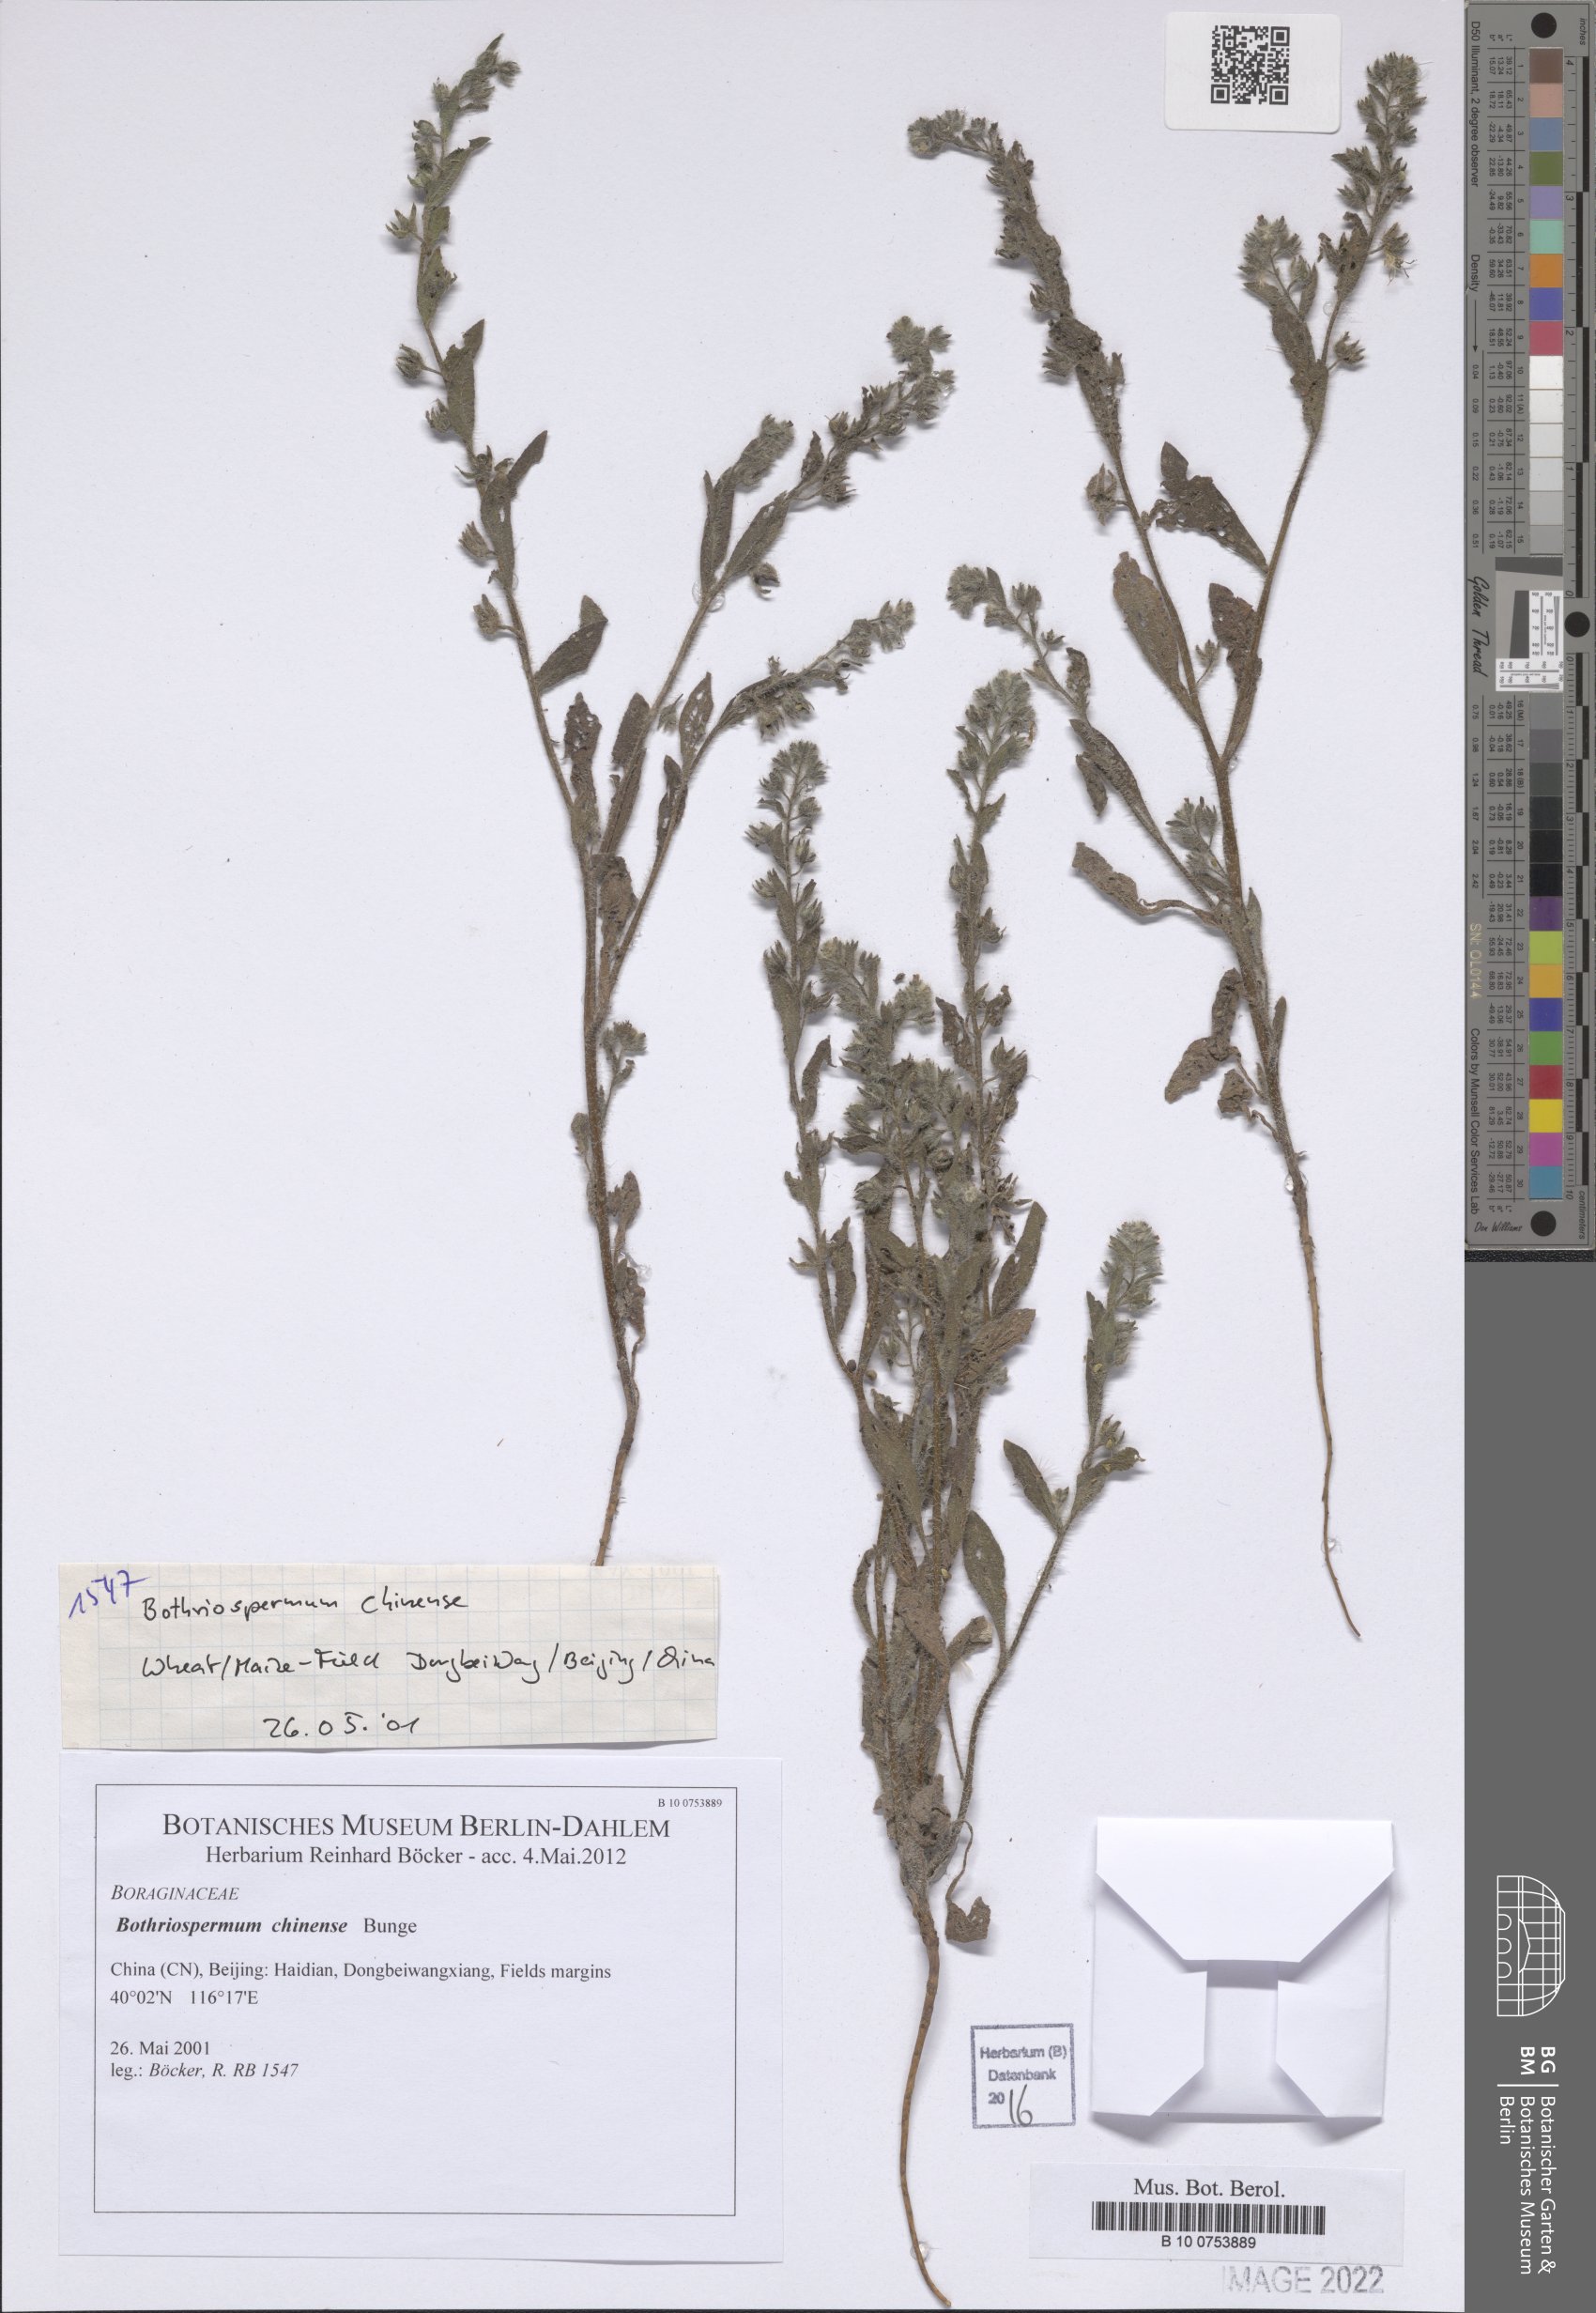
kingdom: Plantae
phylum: Tracheophyta
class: Magnoliopsida
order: Boraginales
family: Boraginaceae
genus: Bothriospermum
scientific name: Bothriospermum chinense
